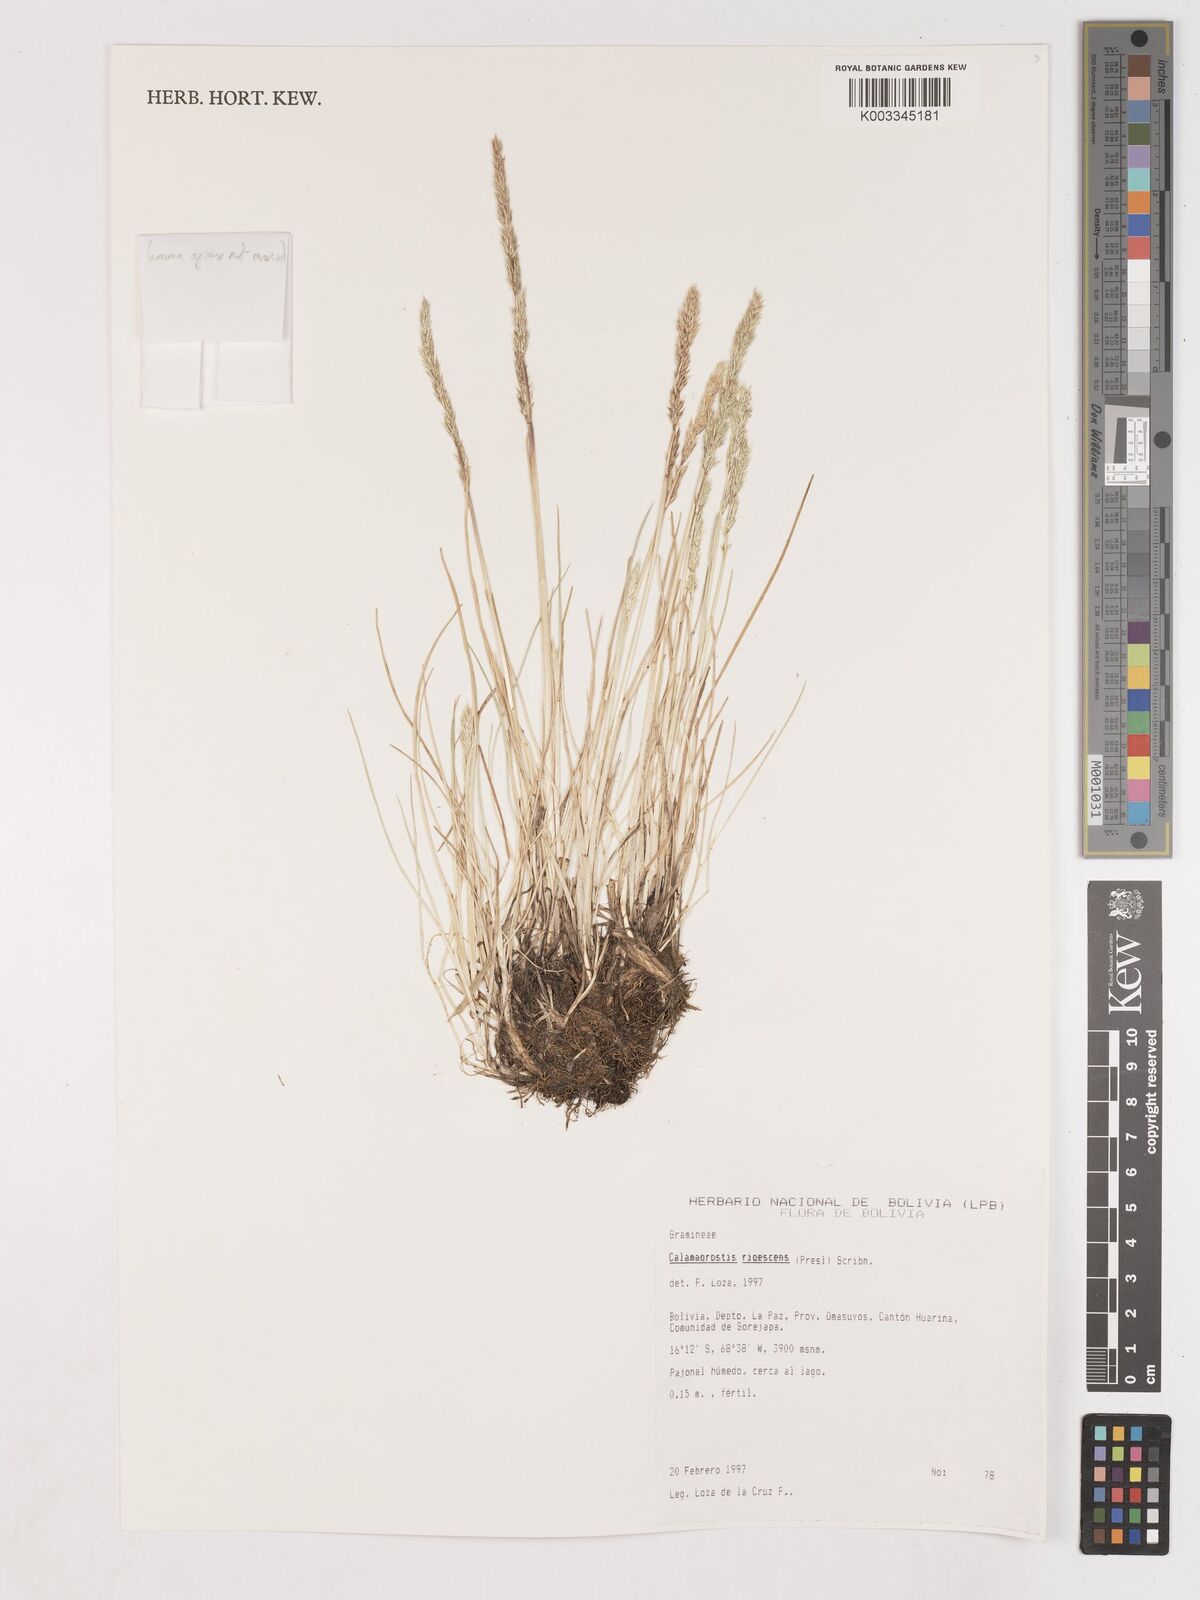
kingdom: Plantae
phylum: Tracheophyta
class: Liliopsida
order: Poales
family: Poaceae
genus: Calamagrostis
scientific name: Calamagrostis
